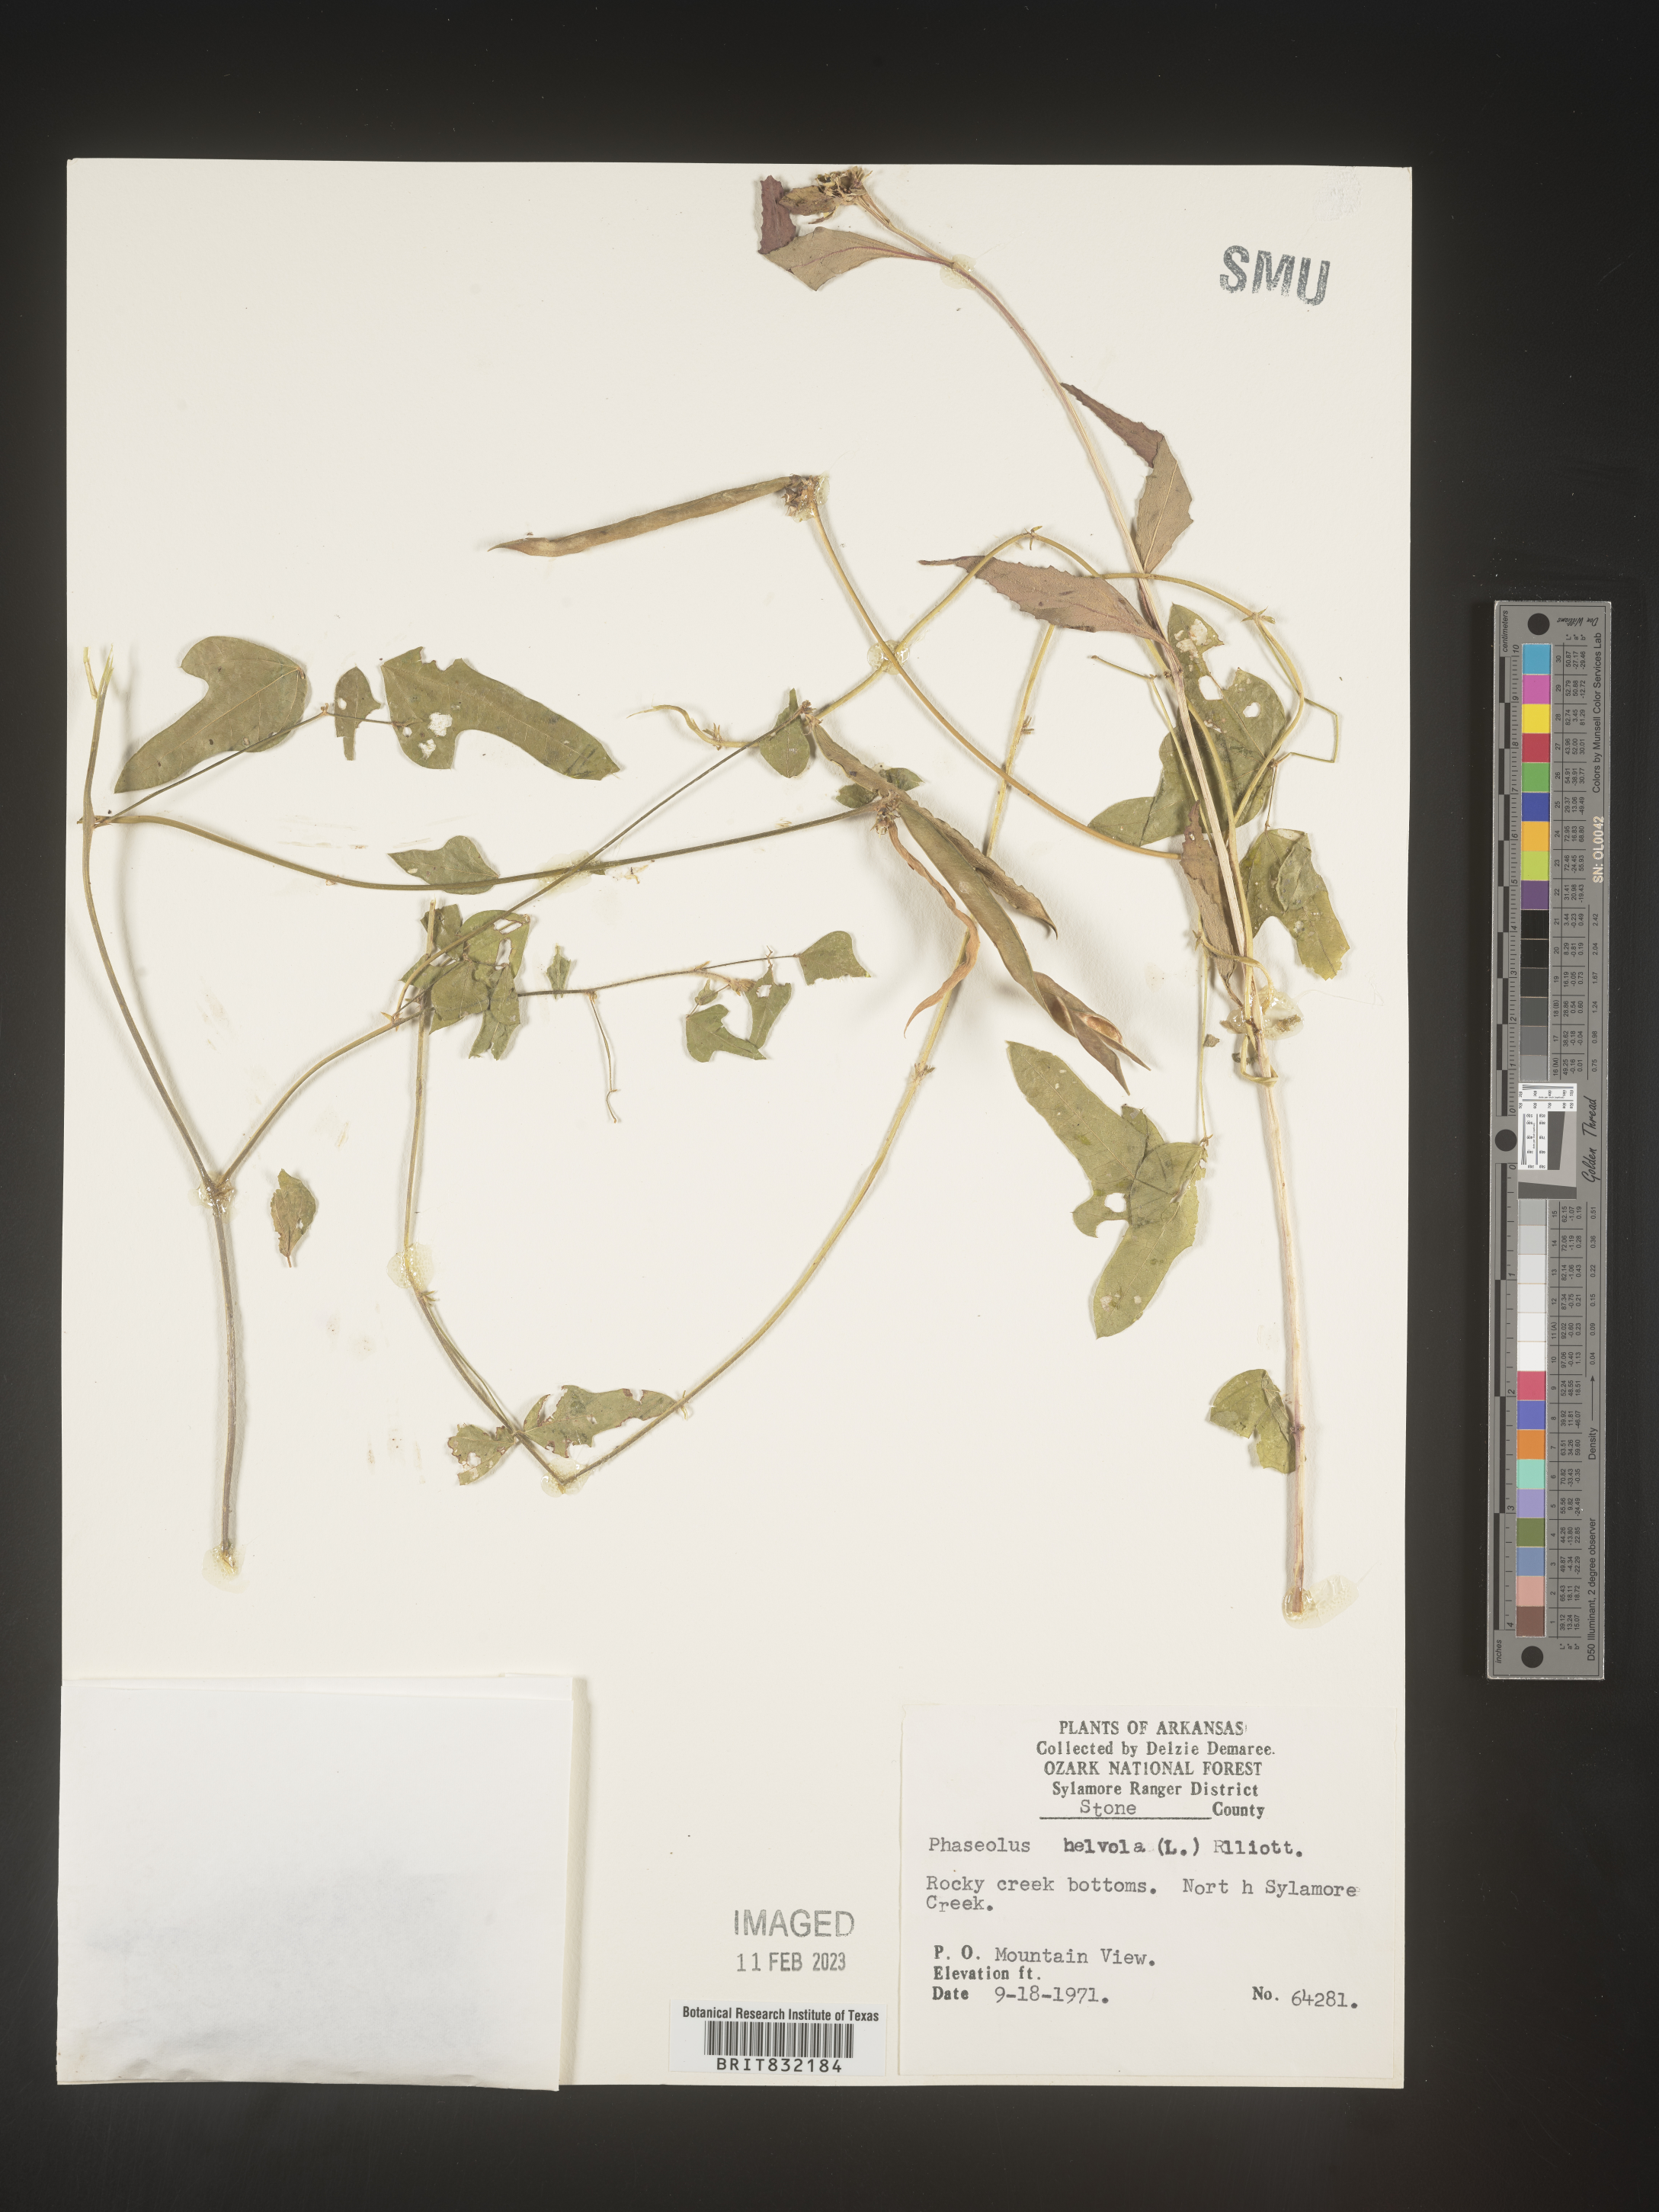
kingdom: Plantae
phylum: Tracheophyta
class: Magnoliopsida
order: Fabales
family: Fabaceae
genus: Strophostyles
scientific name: Strophostyles helvola
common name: Trailing wild bean
